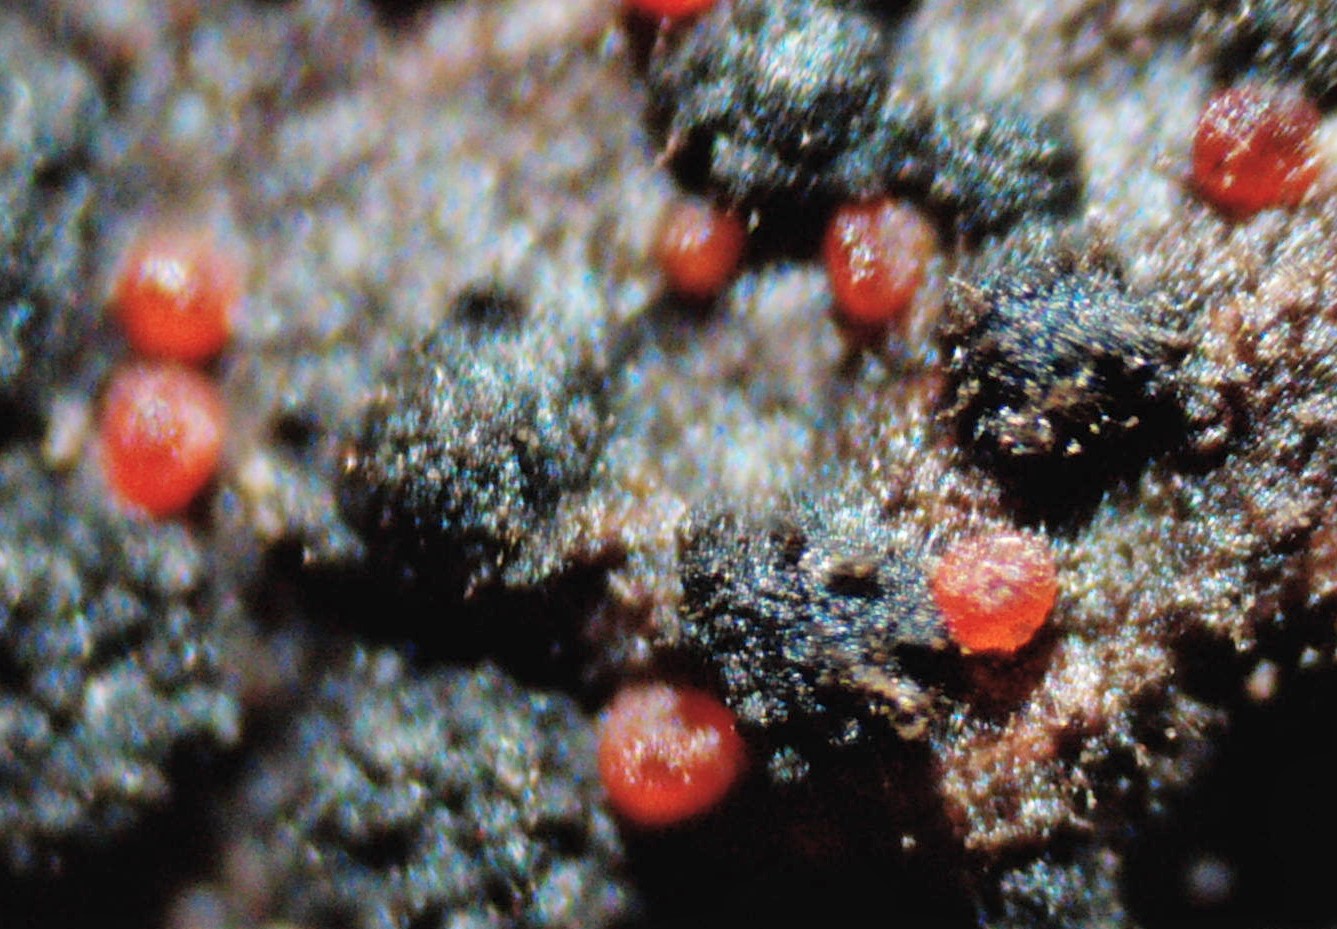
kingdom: Fungi
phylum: Ascomycota
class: Eurotiomycetes
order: Chaetothyriales
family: Herpotrichiellaceae
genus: Capronia
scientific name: Capronia nigerrima
